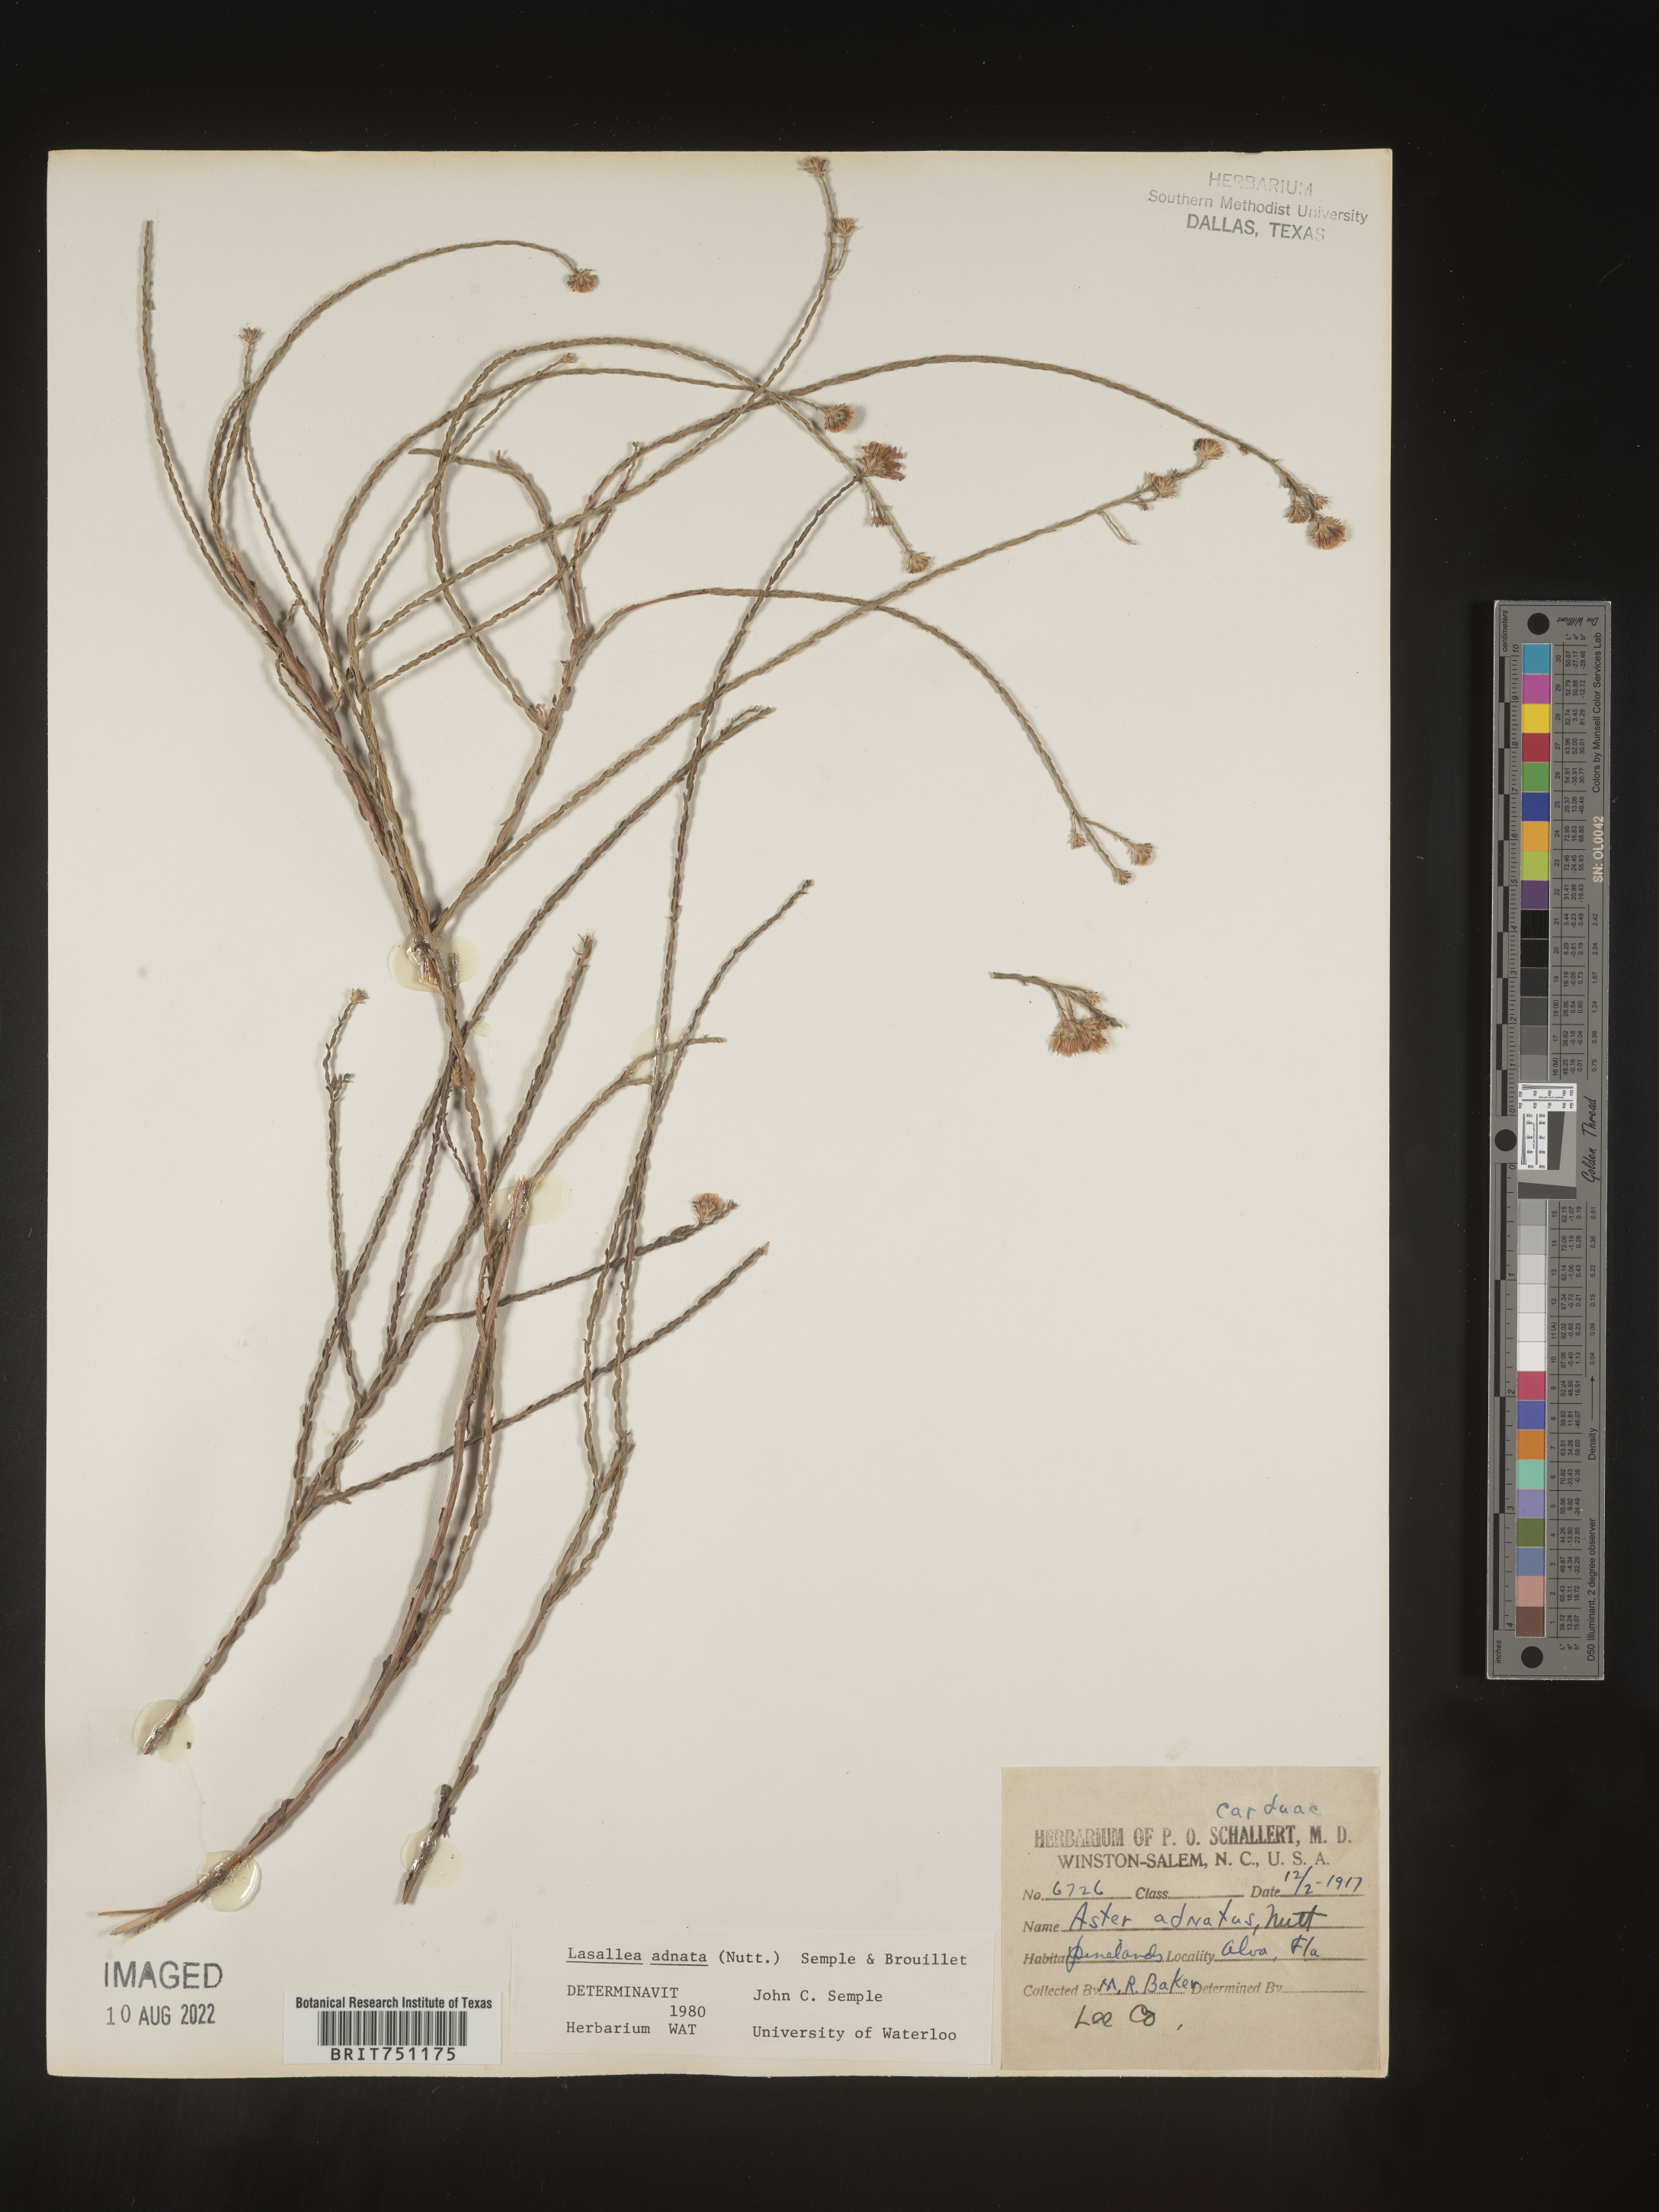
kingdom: Plantae
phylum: Tracheophyta
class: Magnoliopsida
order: Asterales
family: Asteraceae
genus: Symphyotrichum
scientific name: Symphyotrichum adnatum
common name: Scale-leaf aster
